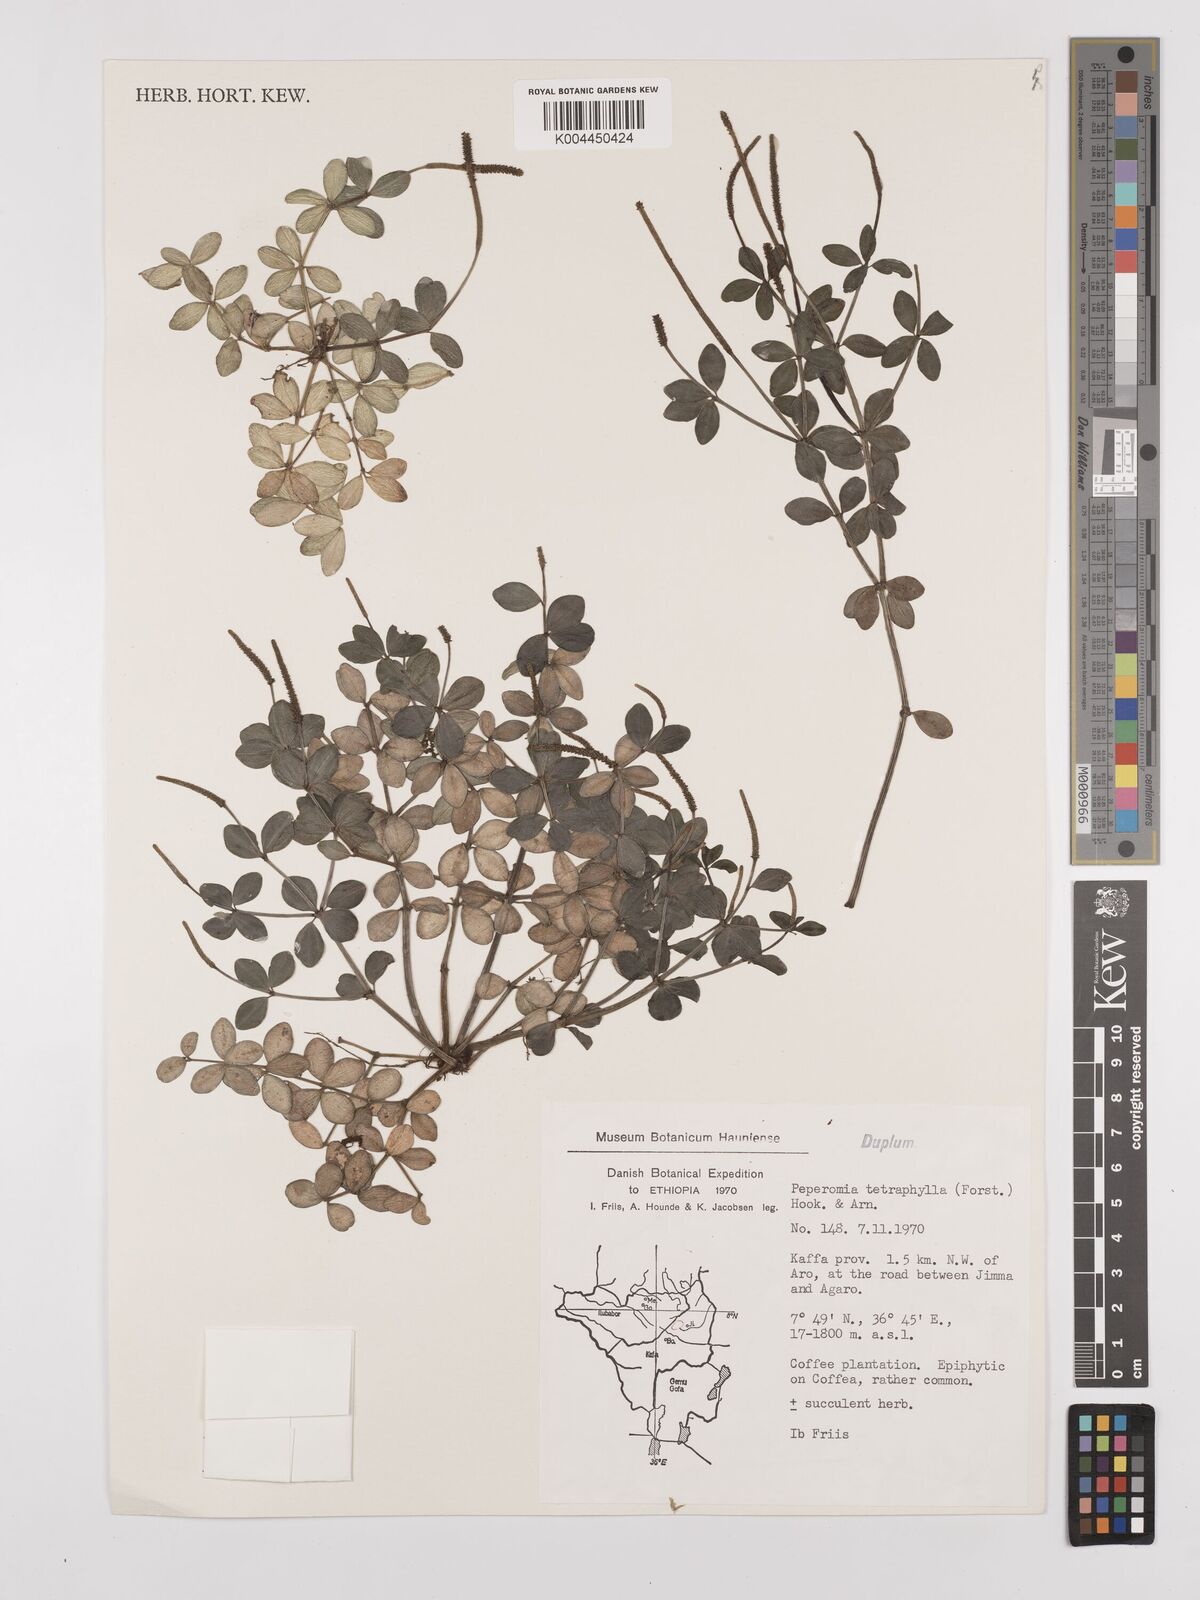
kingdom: Plantae
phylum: Tracheophyta
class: Magnoliopsida
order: Piperales
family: Piperaceae
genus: Peperomia
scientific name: Peperomia tetraphylla
